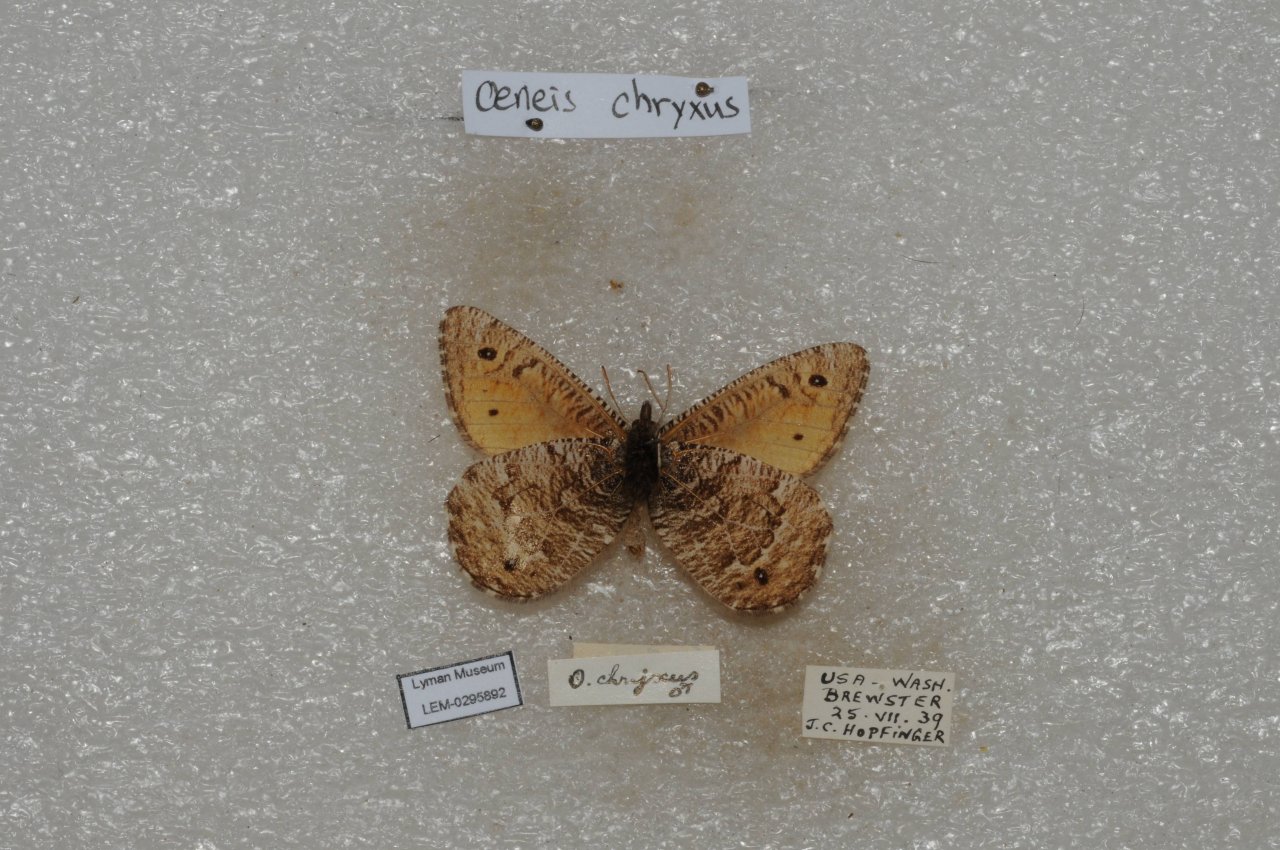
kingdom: Animalia
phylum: Arthropoda
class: Insecta
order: Lepidoptera
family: Nymphalidae
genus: Oeneis
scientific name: Oeneis chryxus
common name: Chryxus Arctic
